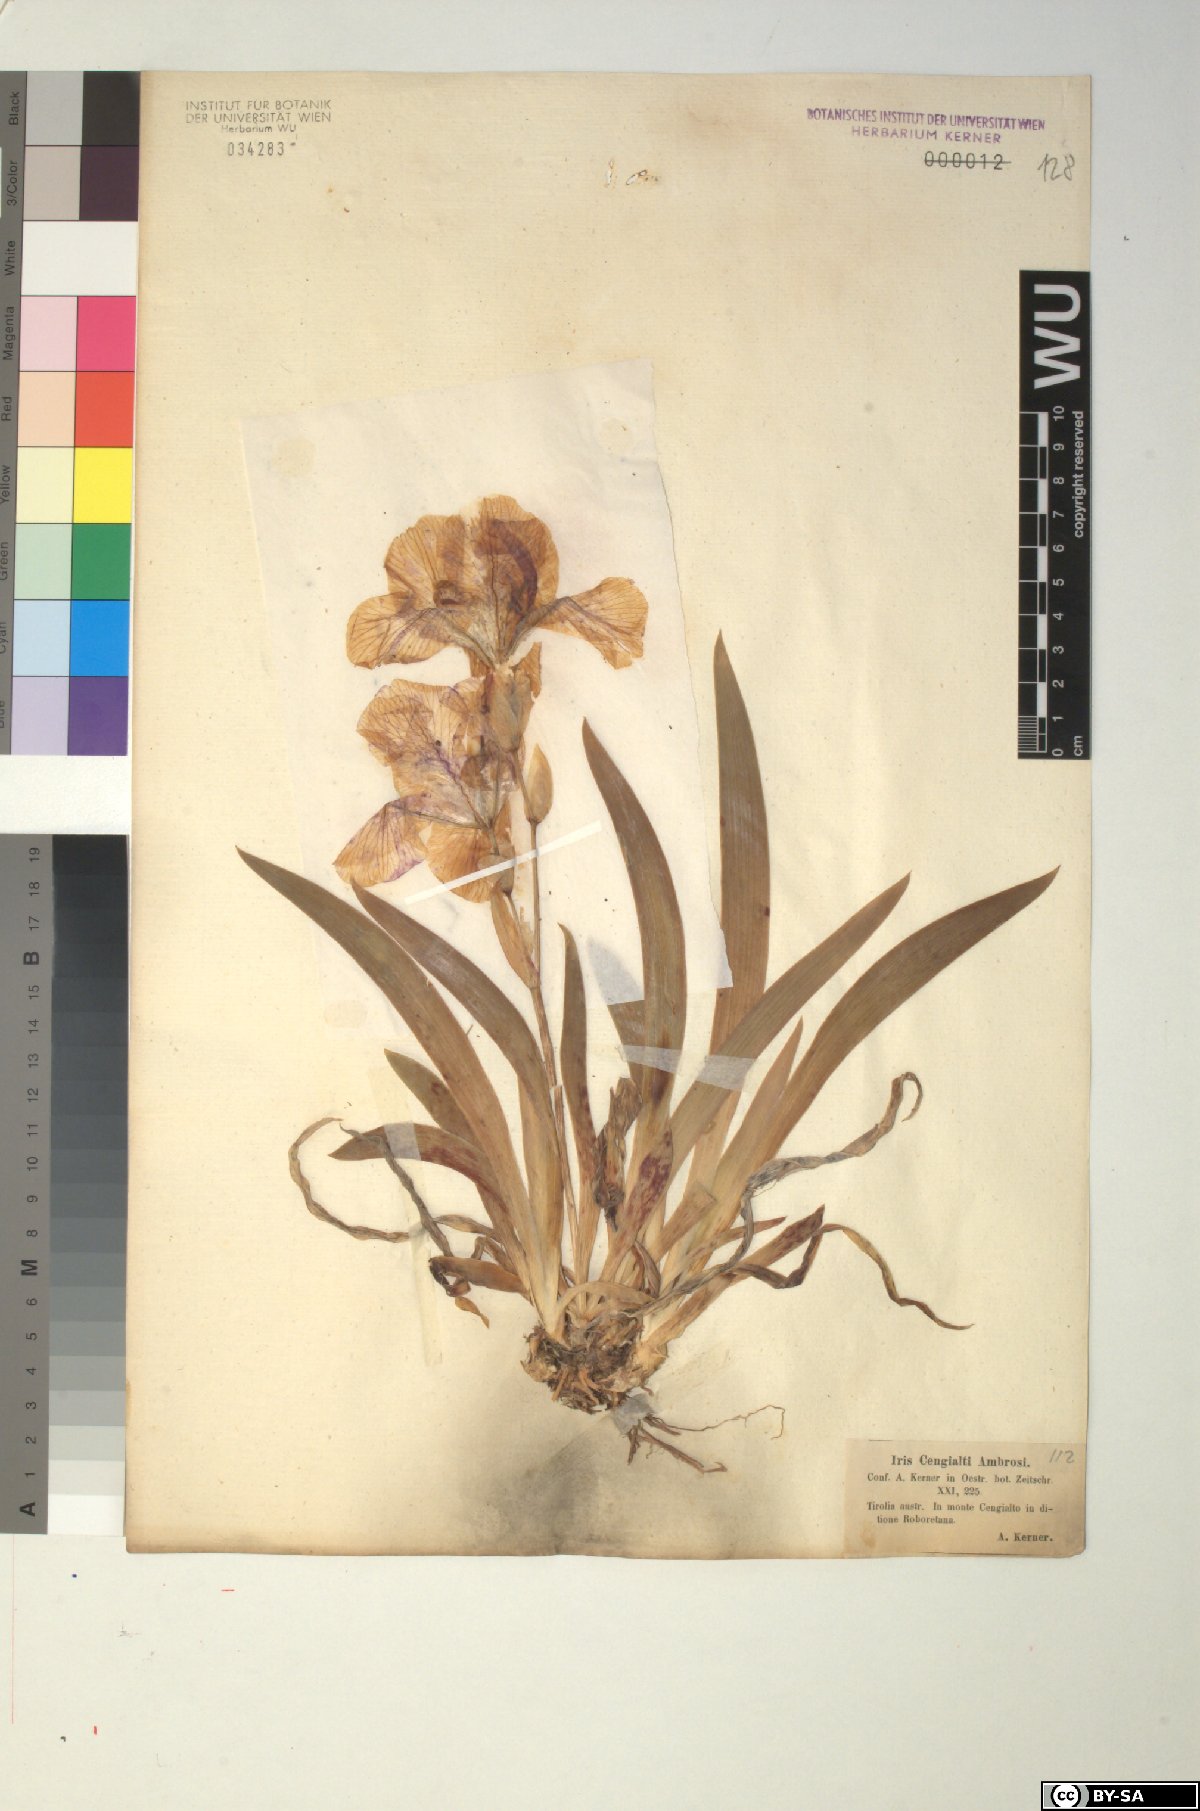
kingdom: Plantae
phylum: Tracheophyta
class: Liliopsida
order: Asparagales
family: Iridaceae
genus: Iris
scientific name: Iris pallida
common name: Sweet iris
